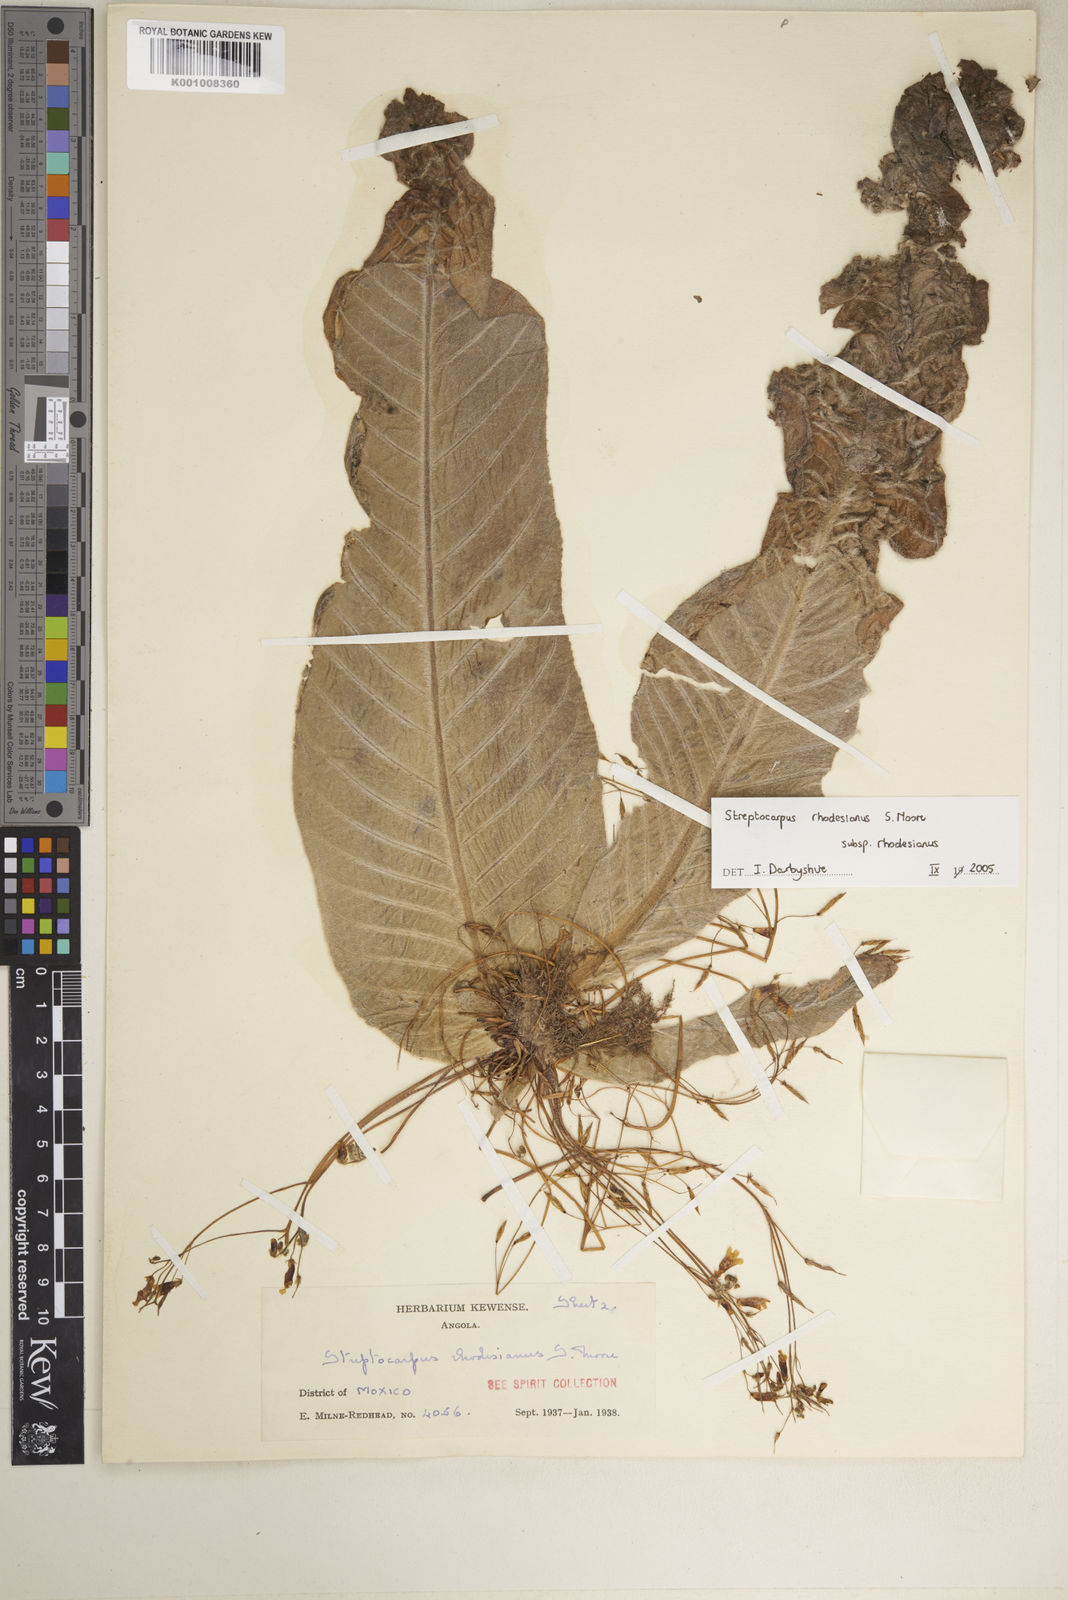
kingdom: Plantae
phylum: Tracheophyta
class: Magnoliopsida
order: Lamiales
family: Gesneriaceae
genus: Streptocarpus
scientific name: Streptocarpus rhodesianus
